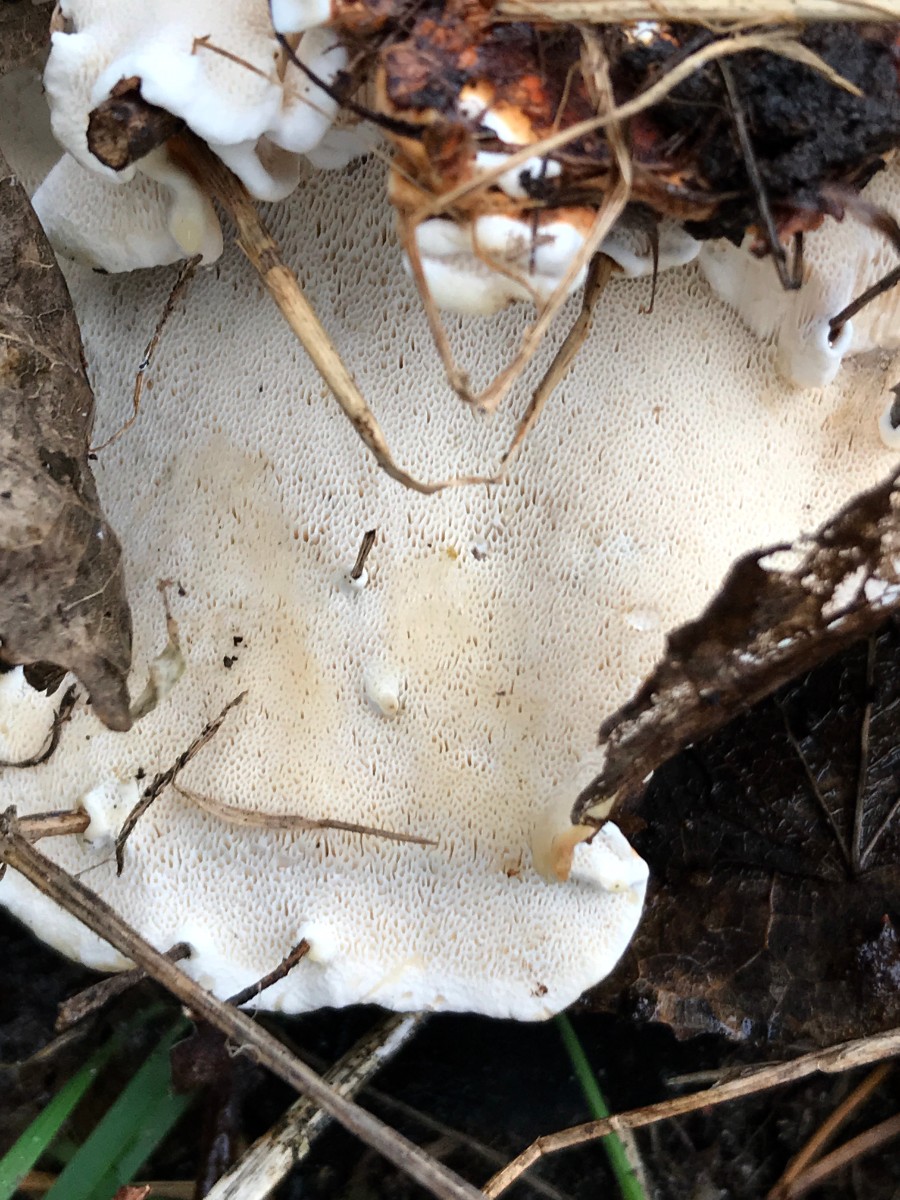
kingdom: Fungi
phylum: Basidiomycota
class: Agaricomycetes
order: Russulales
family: Bondarzewiaceae
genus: Heterobasidion
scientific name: Heterobasidion annosum
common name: almindelig rodfordærver
